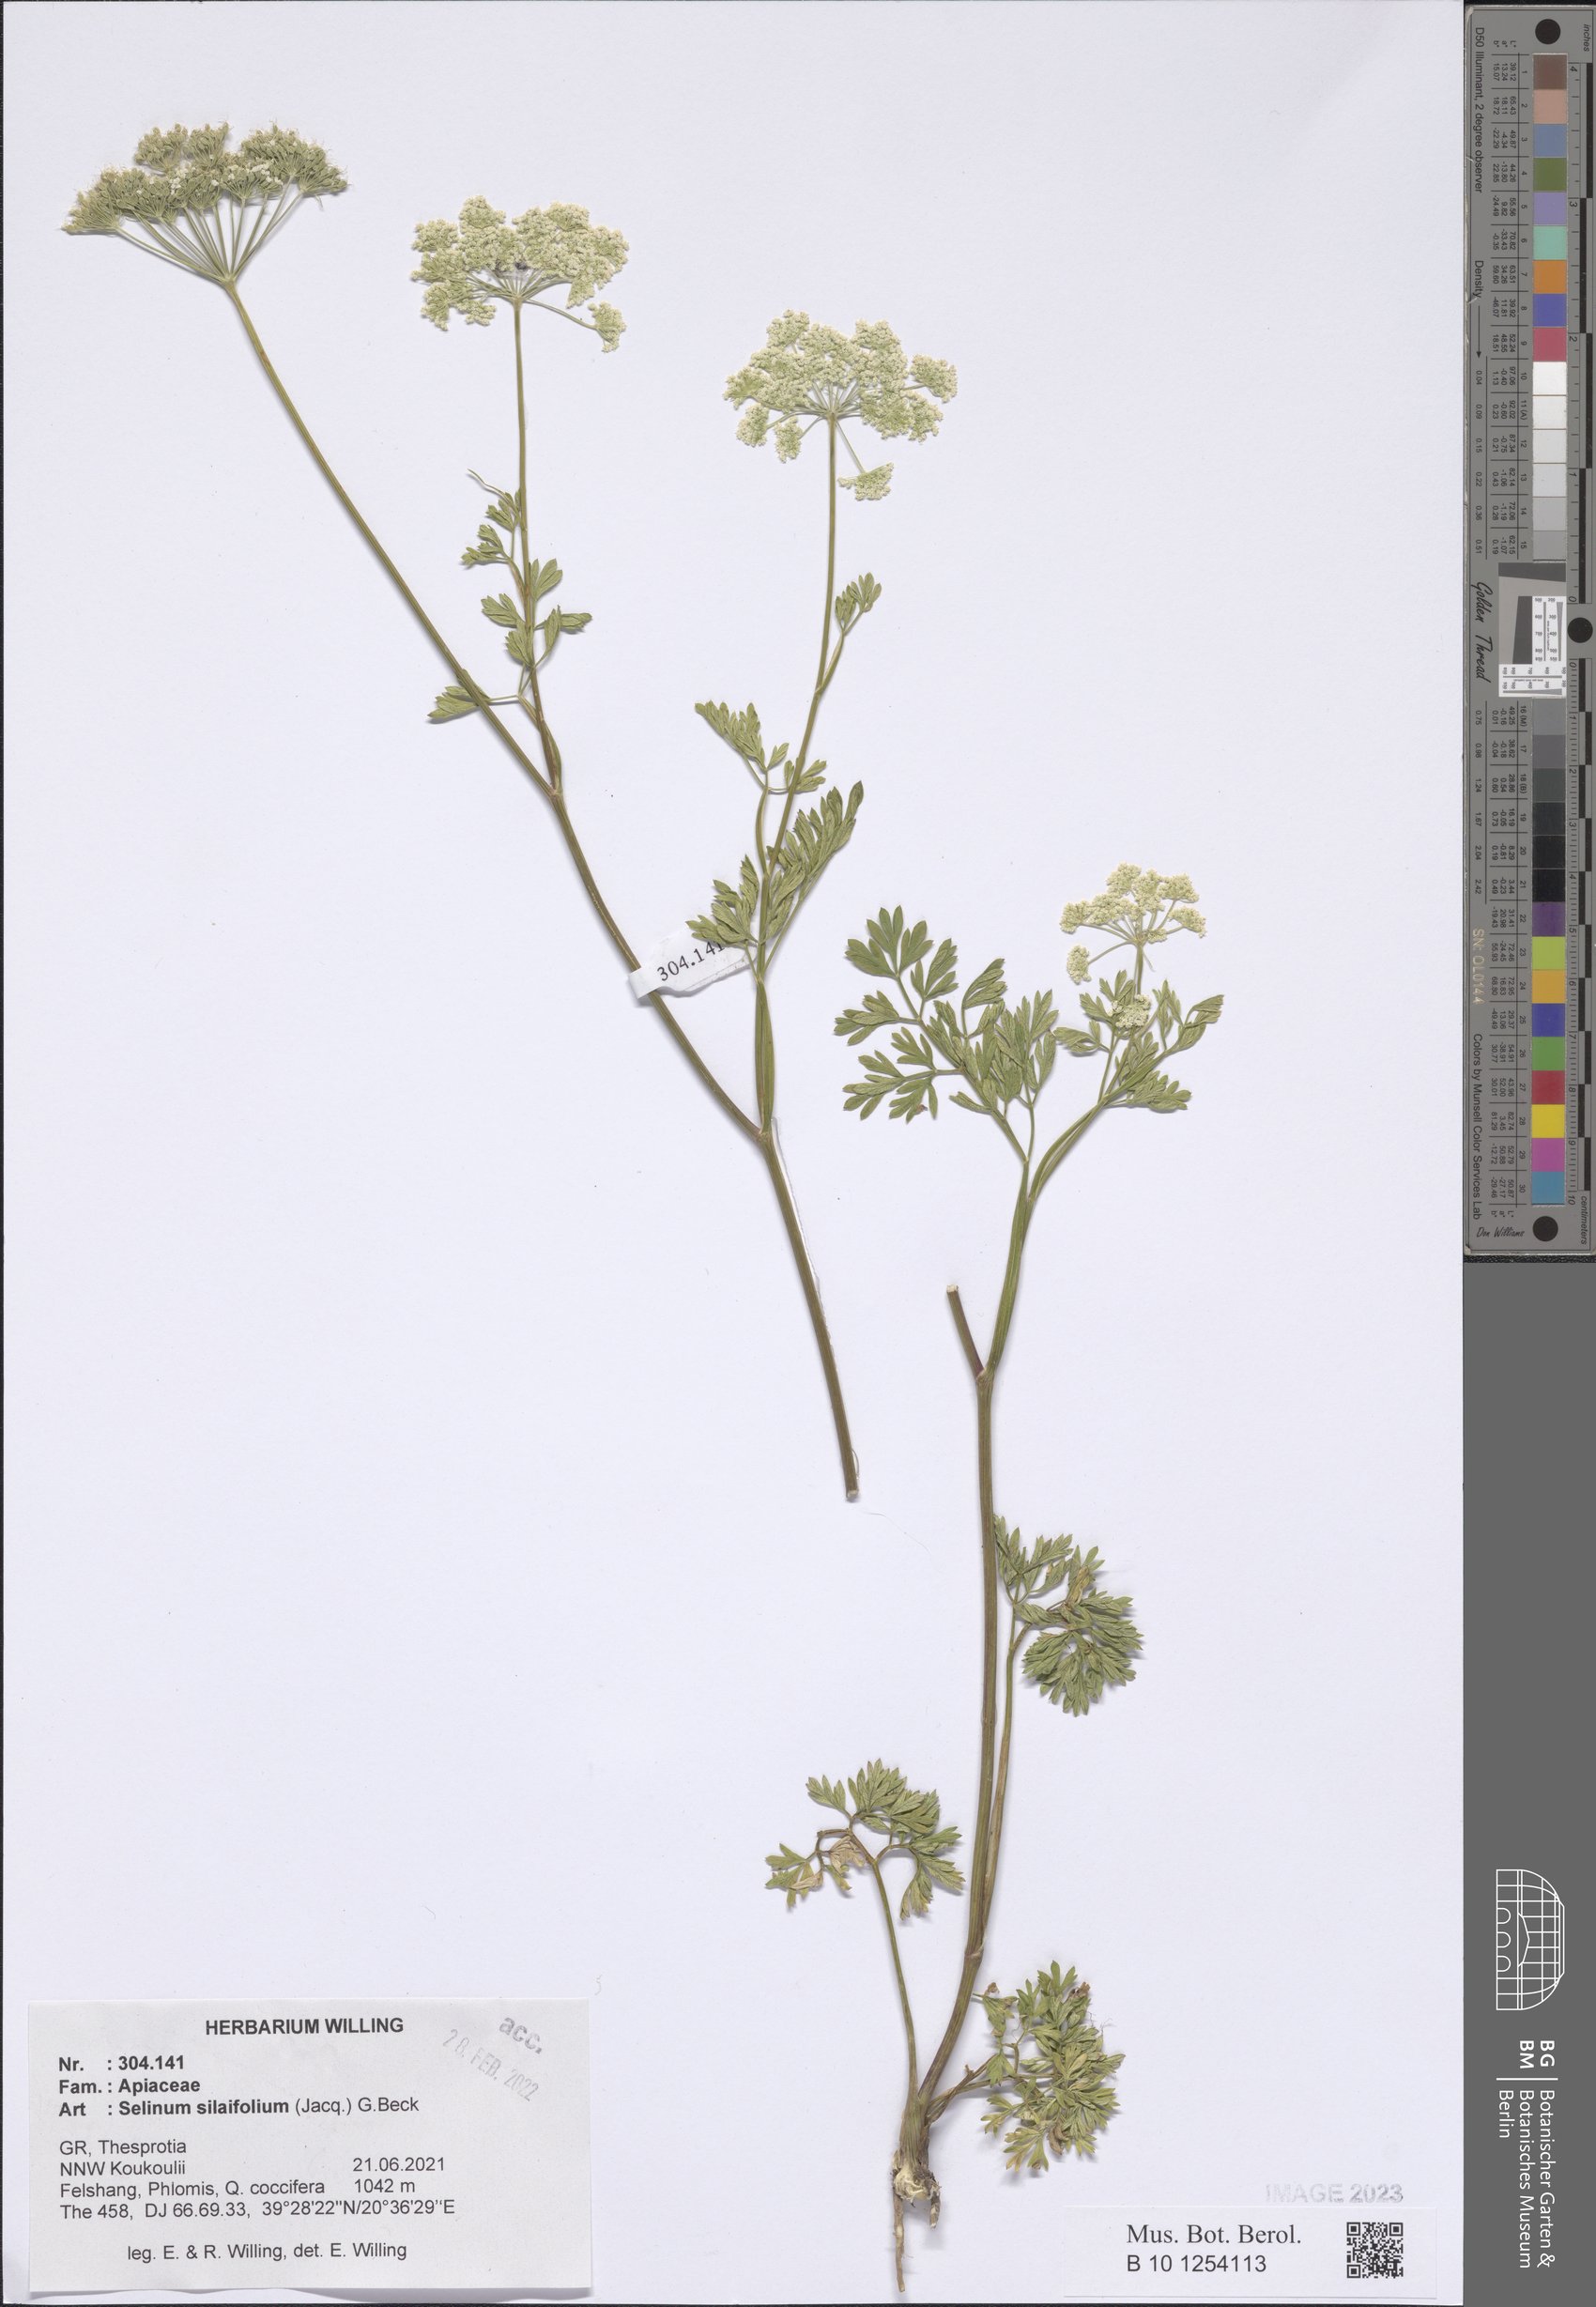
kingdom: Plantae
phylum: Tracheophyta
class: Magnoliopsida
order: Apiales
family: Apiaceae
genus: Katapsuxis
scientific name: Katapsuxis silaifolia
